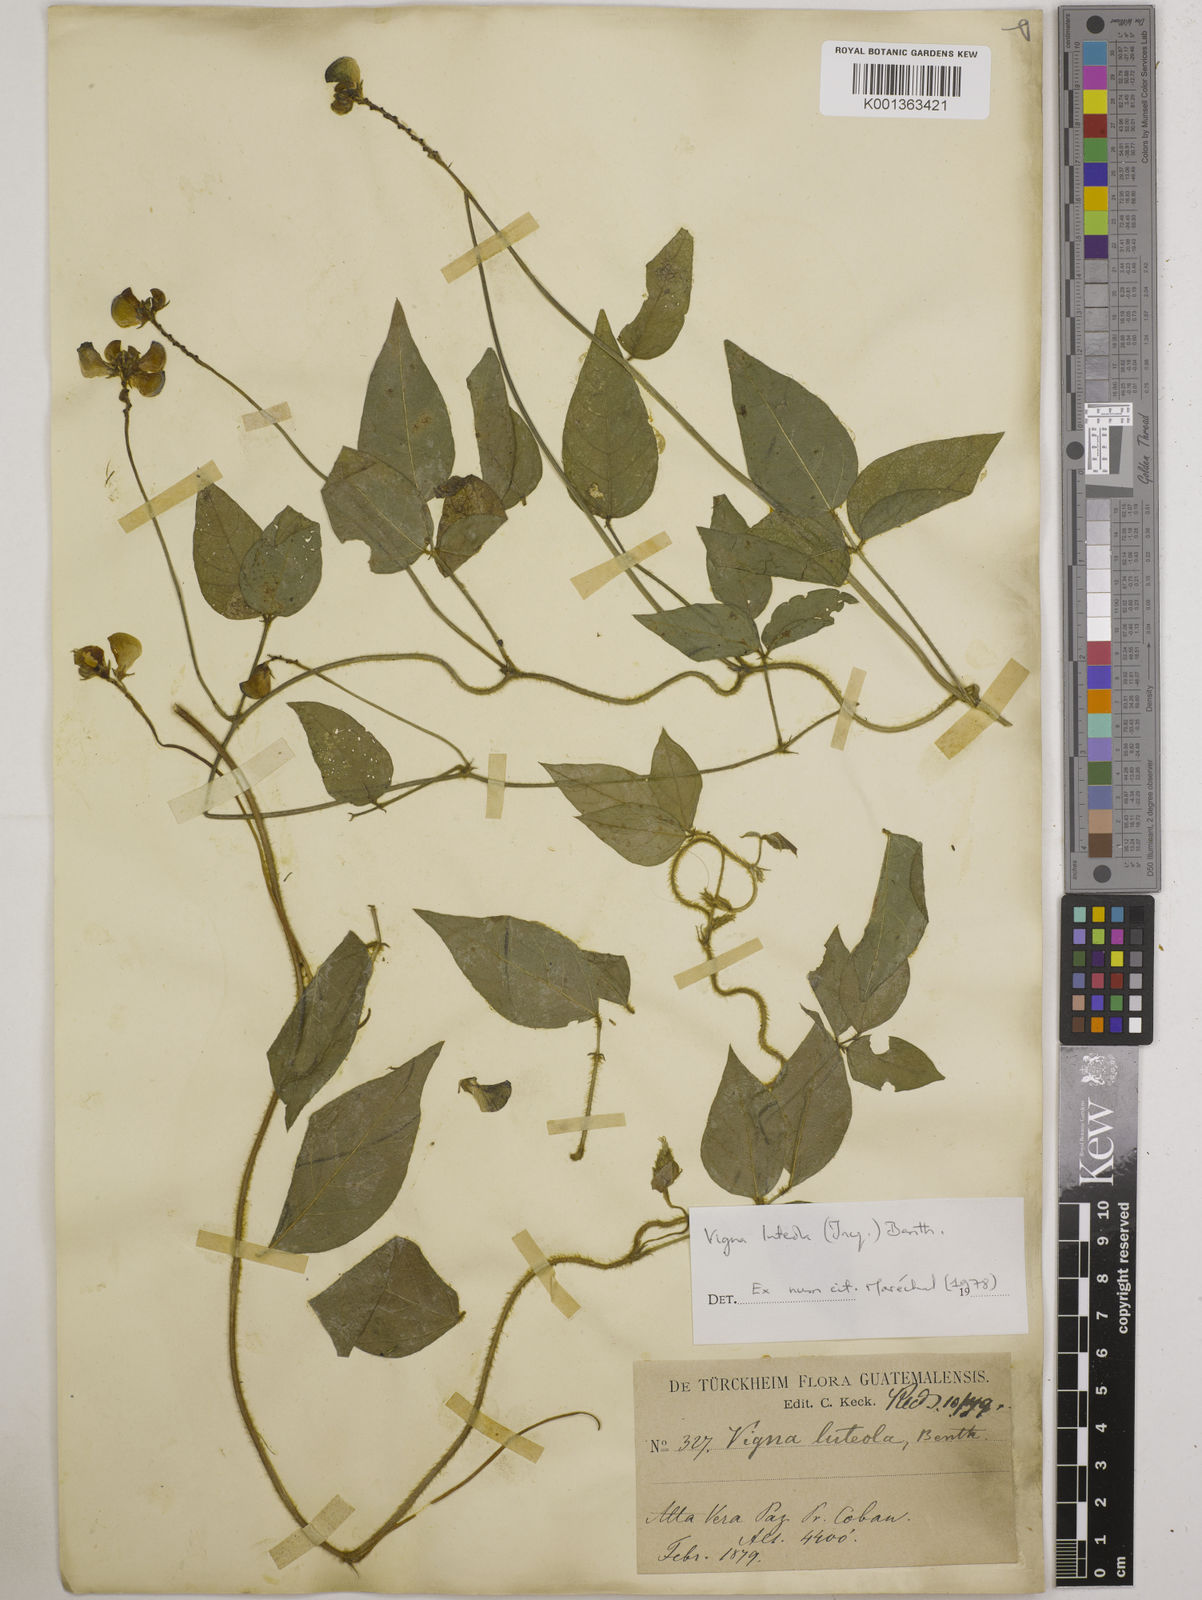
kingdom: Plantae
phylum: Tracheophyta
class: Magnoliopsida
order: Fabales
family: Fabaceae
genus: Vigna
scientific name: Vigna luteola
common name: Hairypod cowpea
